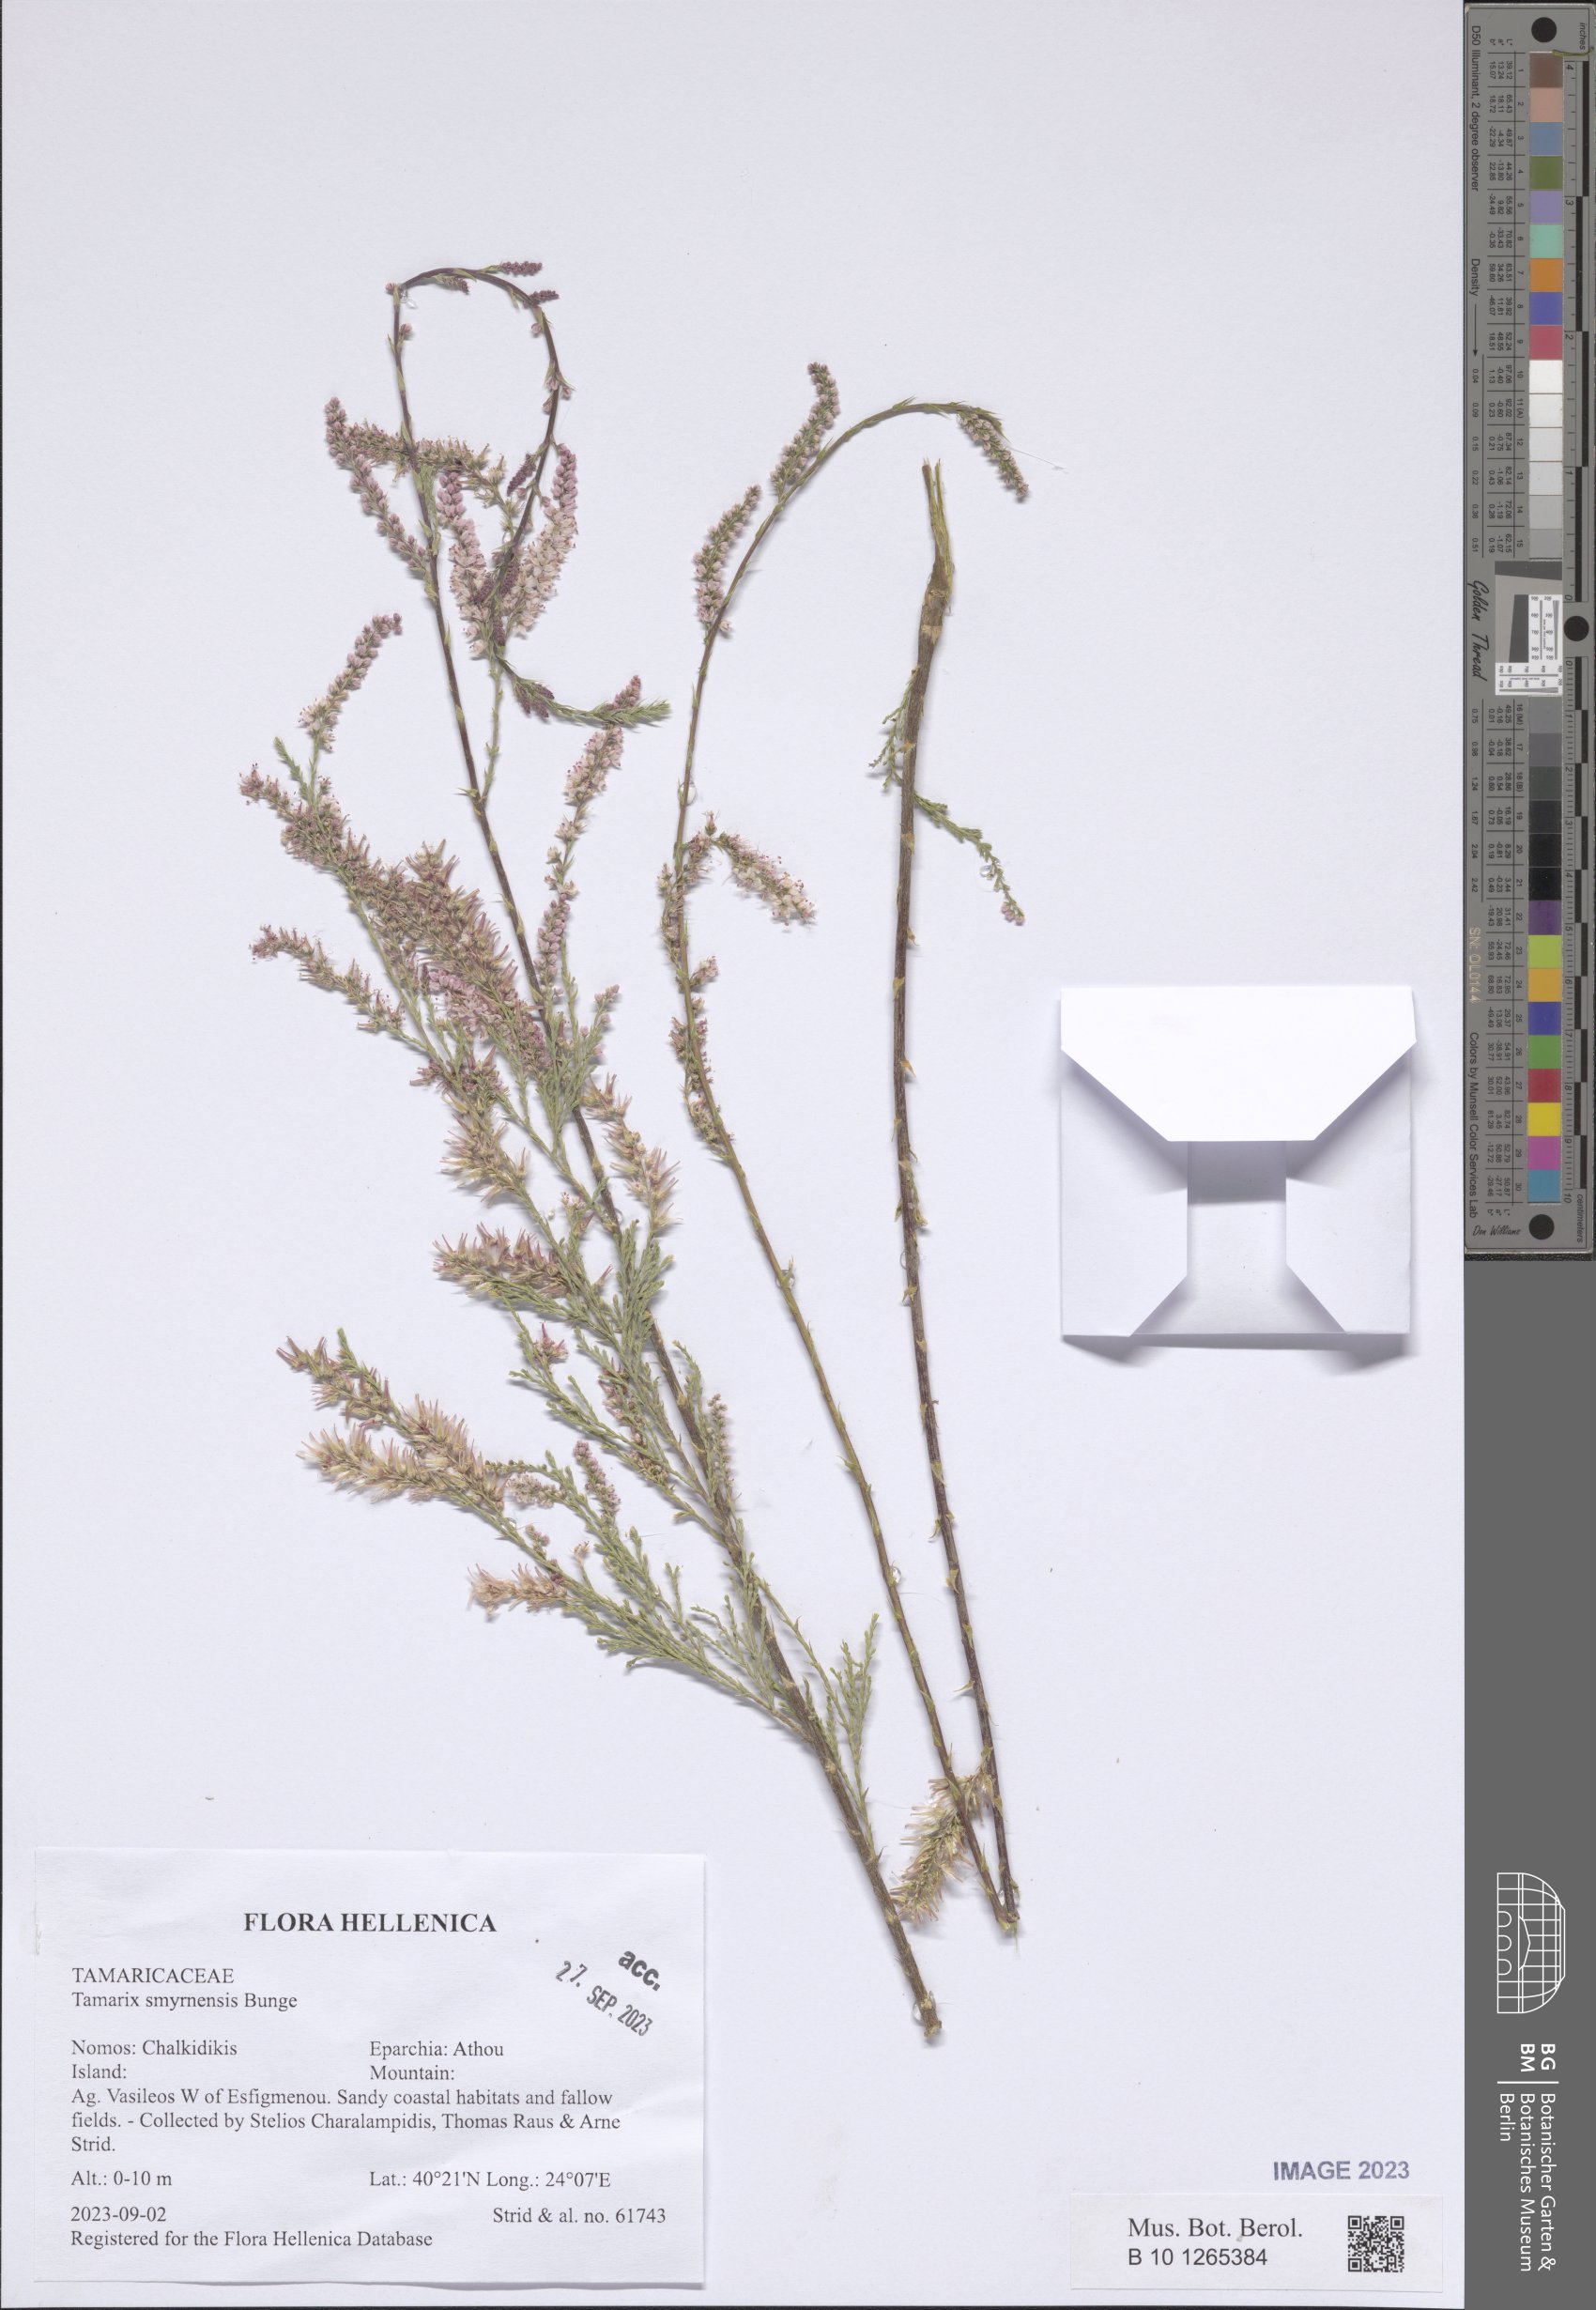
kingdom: Plantae
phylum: Tracheophyta
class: Magnoliopsida
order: Caryophyllales
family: Tamaricaceae
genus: Tamarix
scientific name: Tamarix smyrnensis
